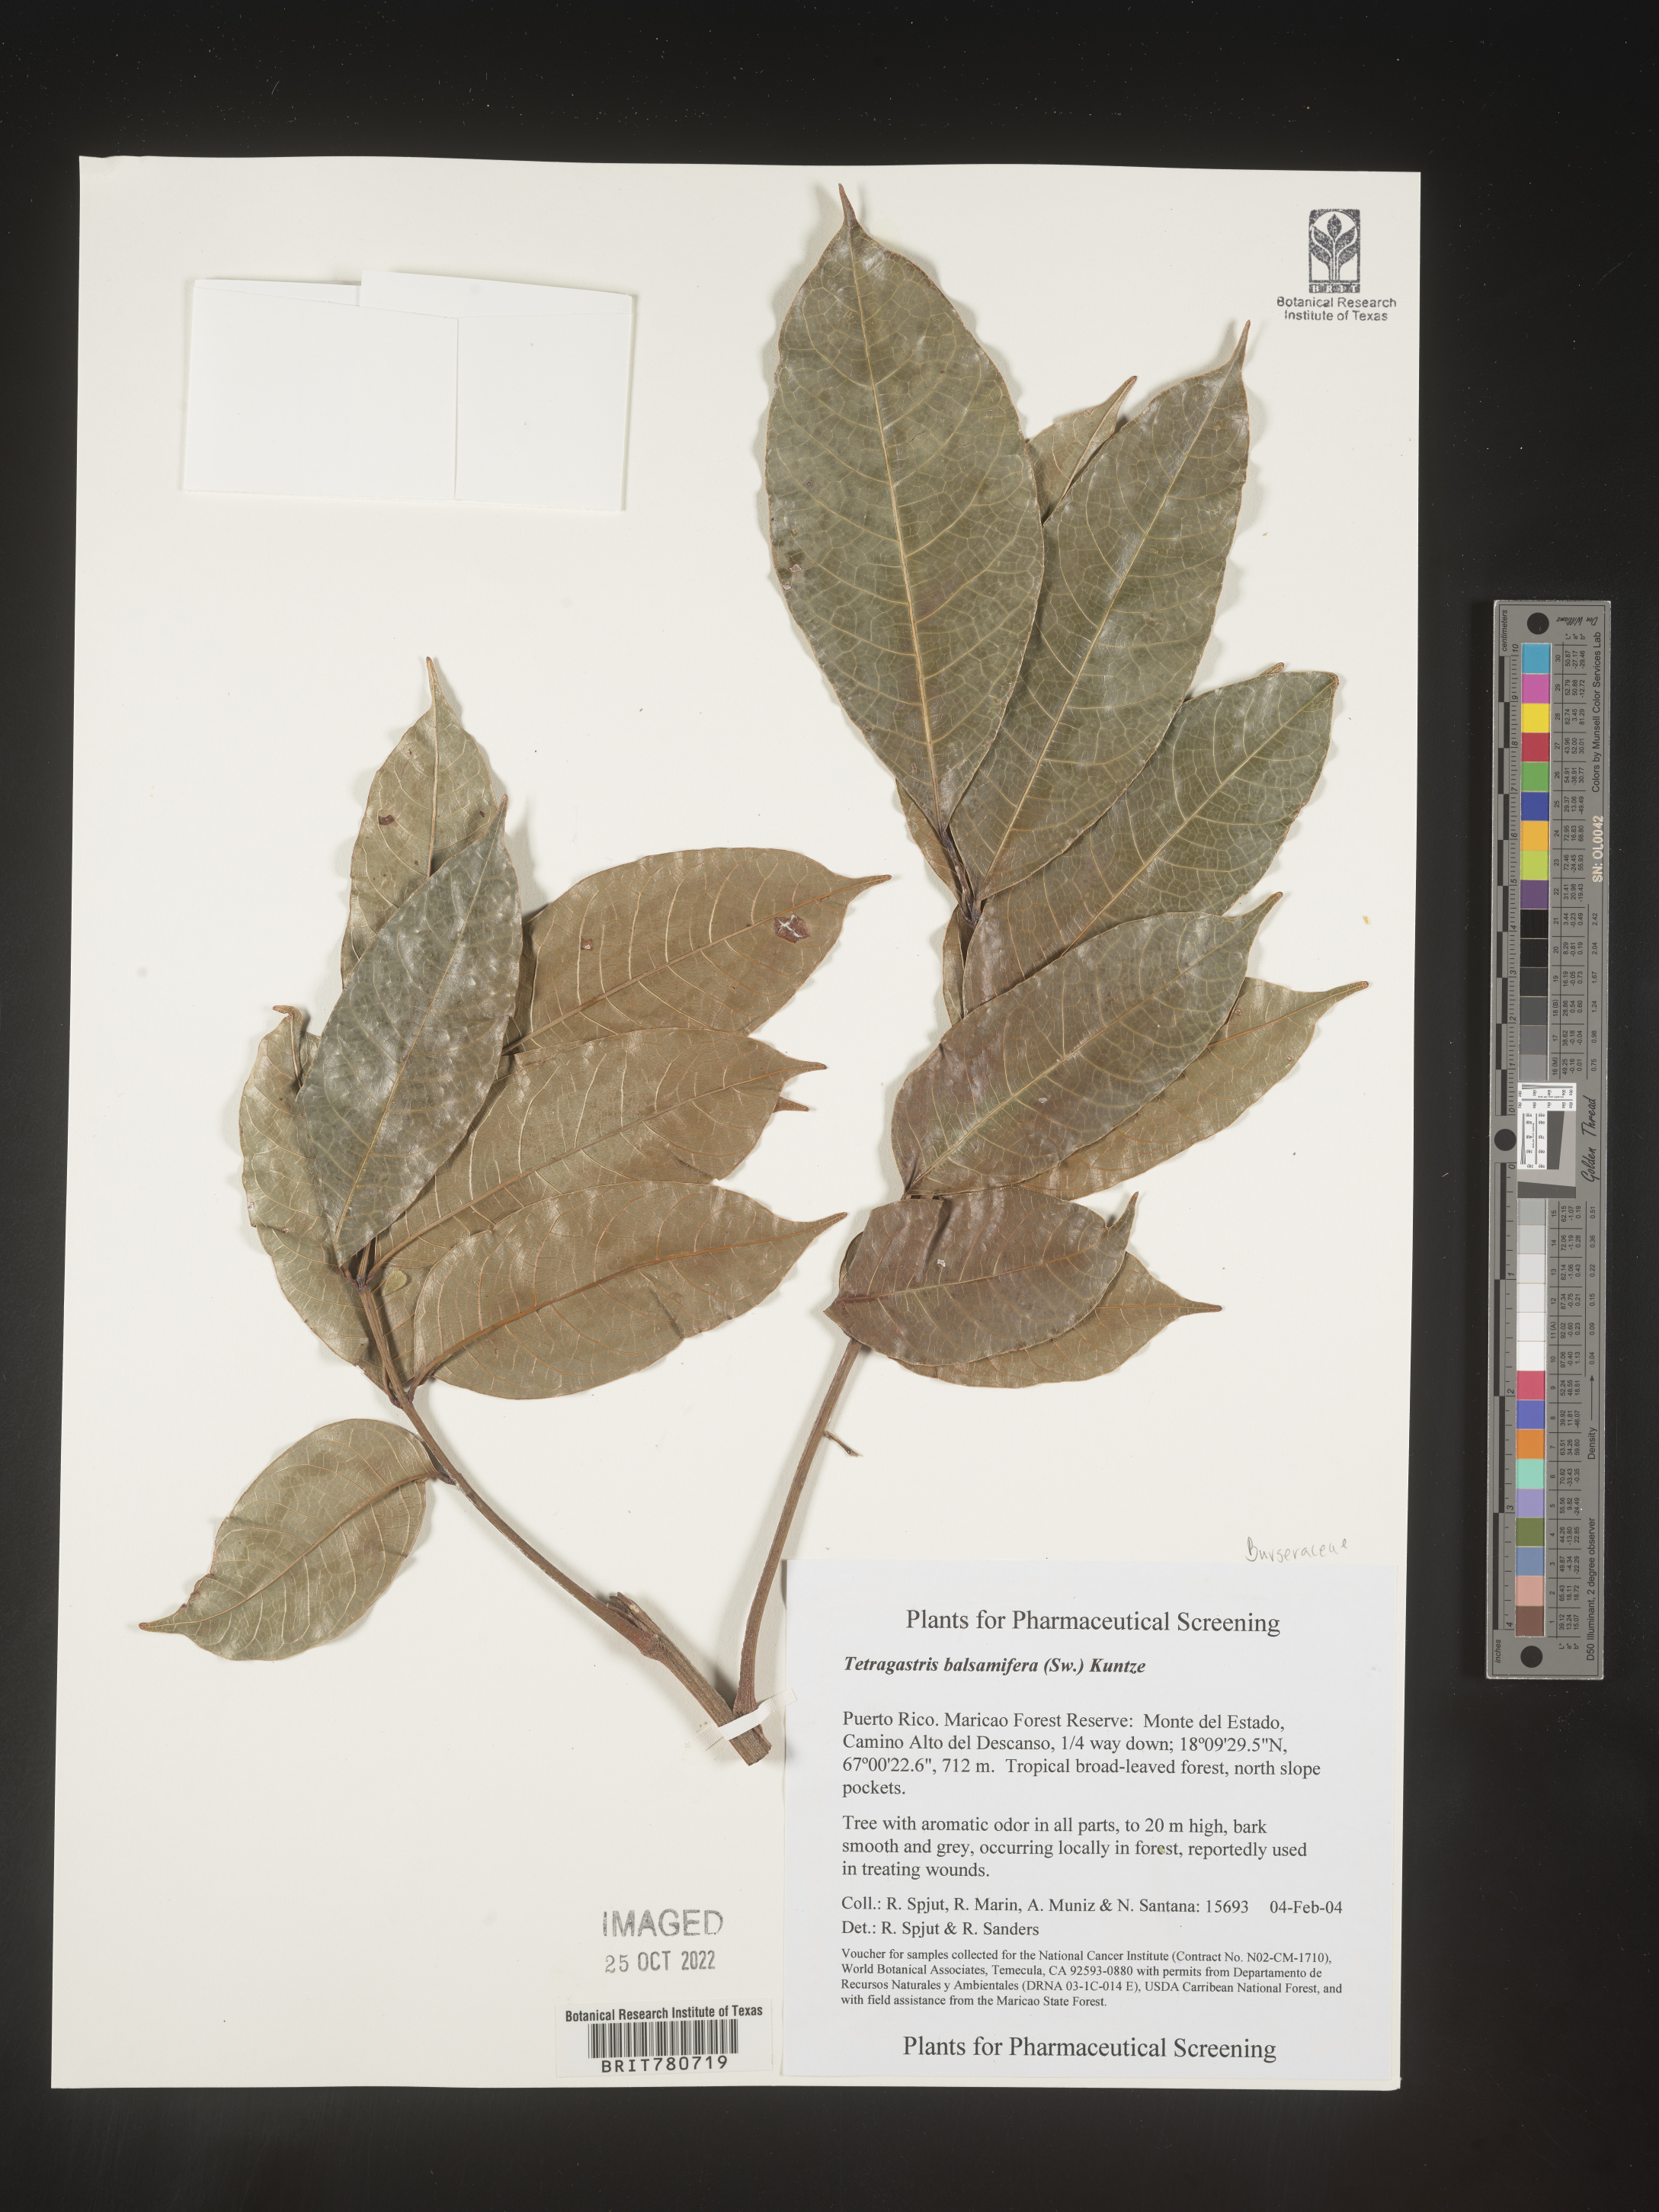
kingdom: Plantae
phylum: Tracheophyta
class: Magnoliopsida
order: Sapindales
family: Burseraceae
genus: Tetragastris
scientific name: Tetragastris
